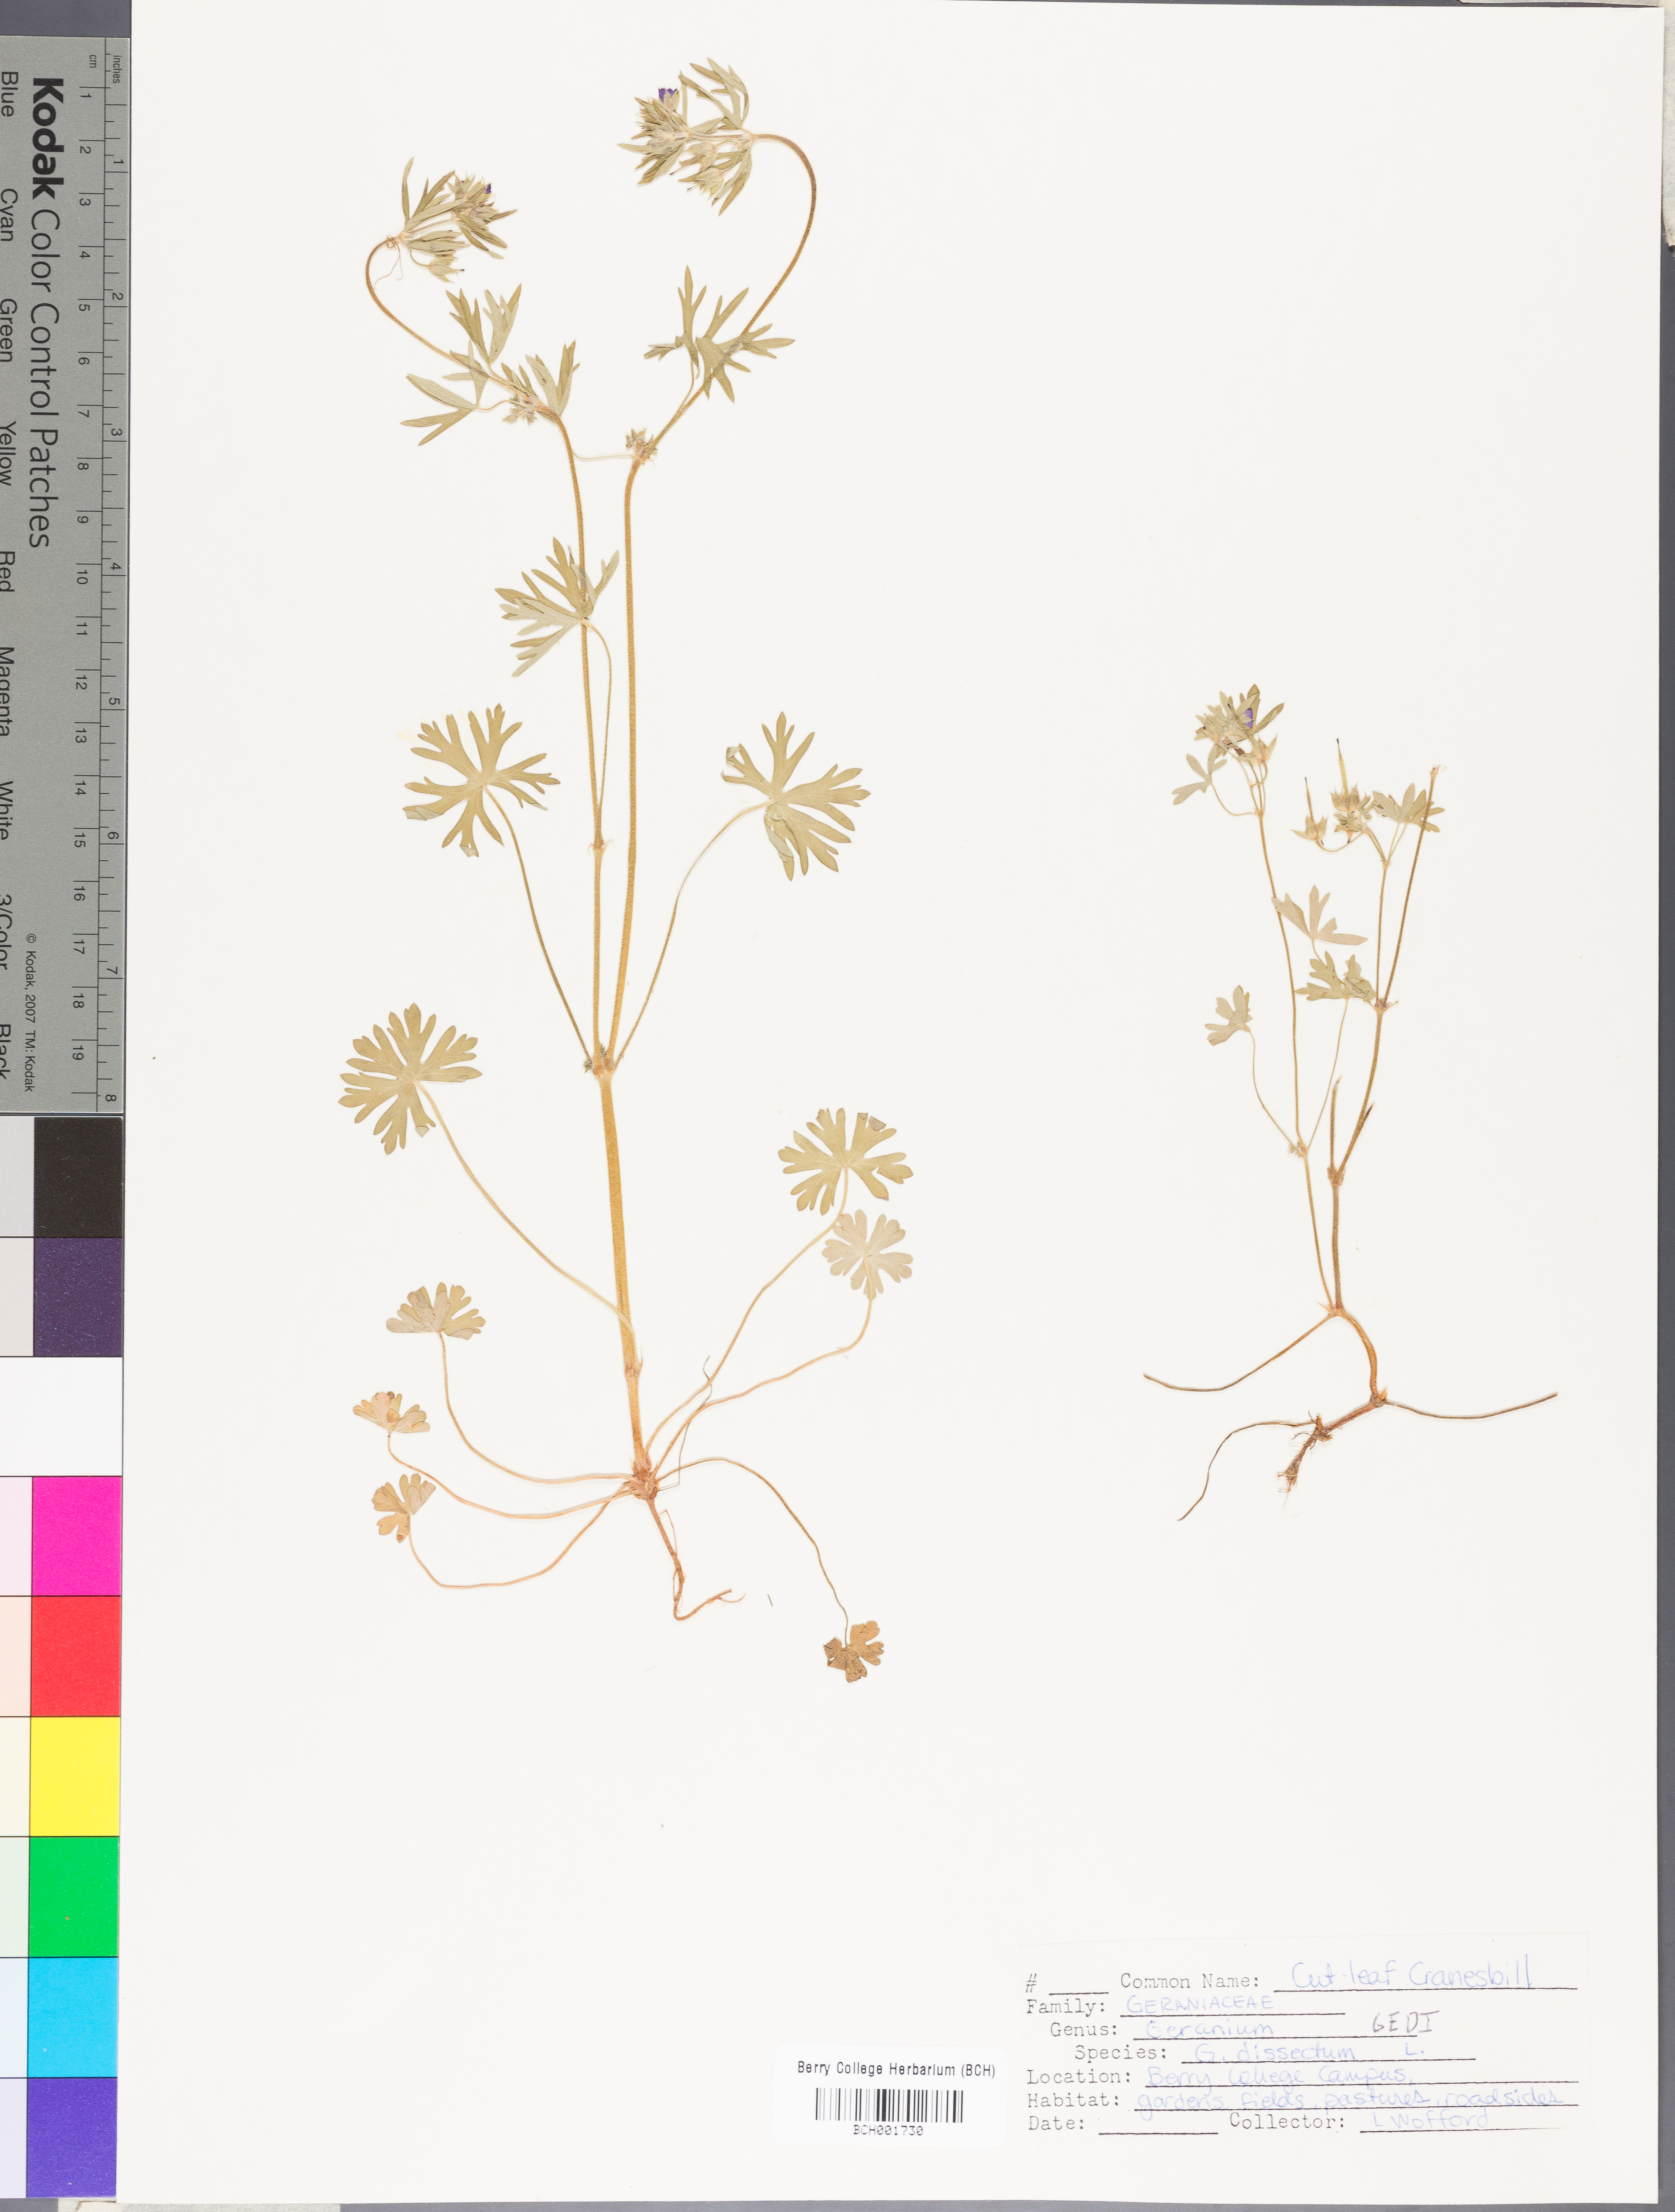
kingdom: Plantae
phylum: Tracheophyta
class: Magnoliopsida
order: Geraniales
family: Geraniaceae
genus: Geranium
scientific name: Geranium dissectum
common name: Cut-leaved crane's-bill
